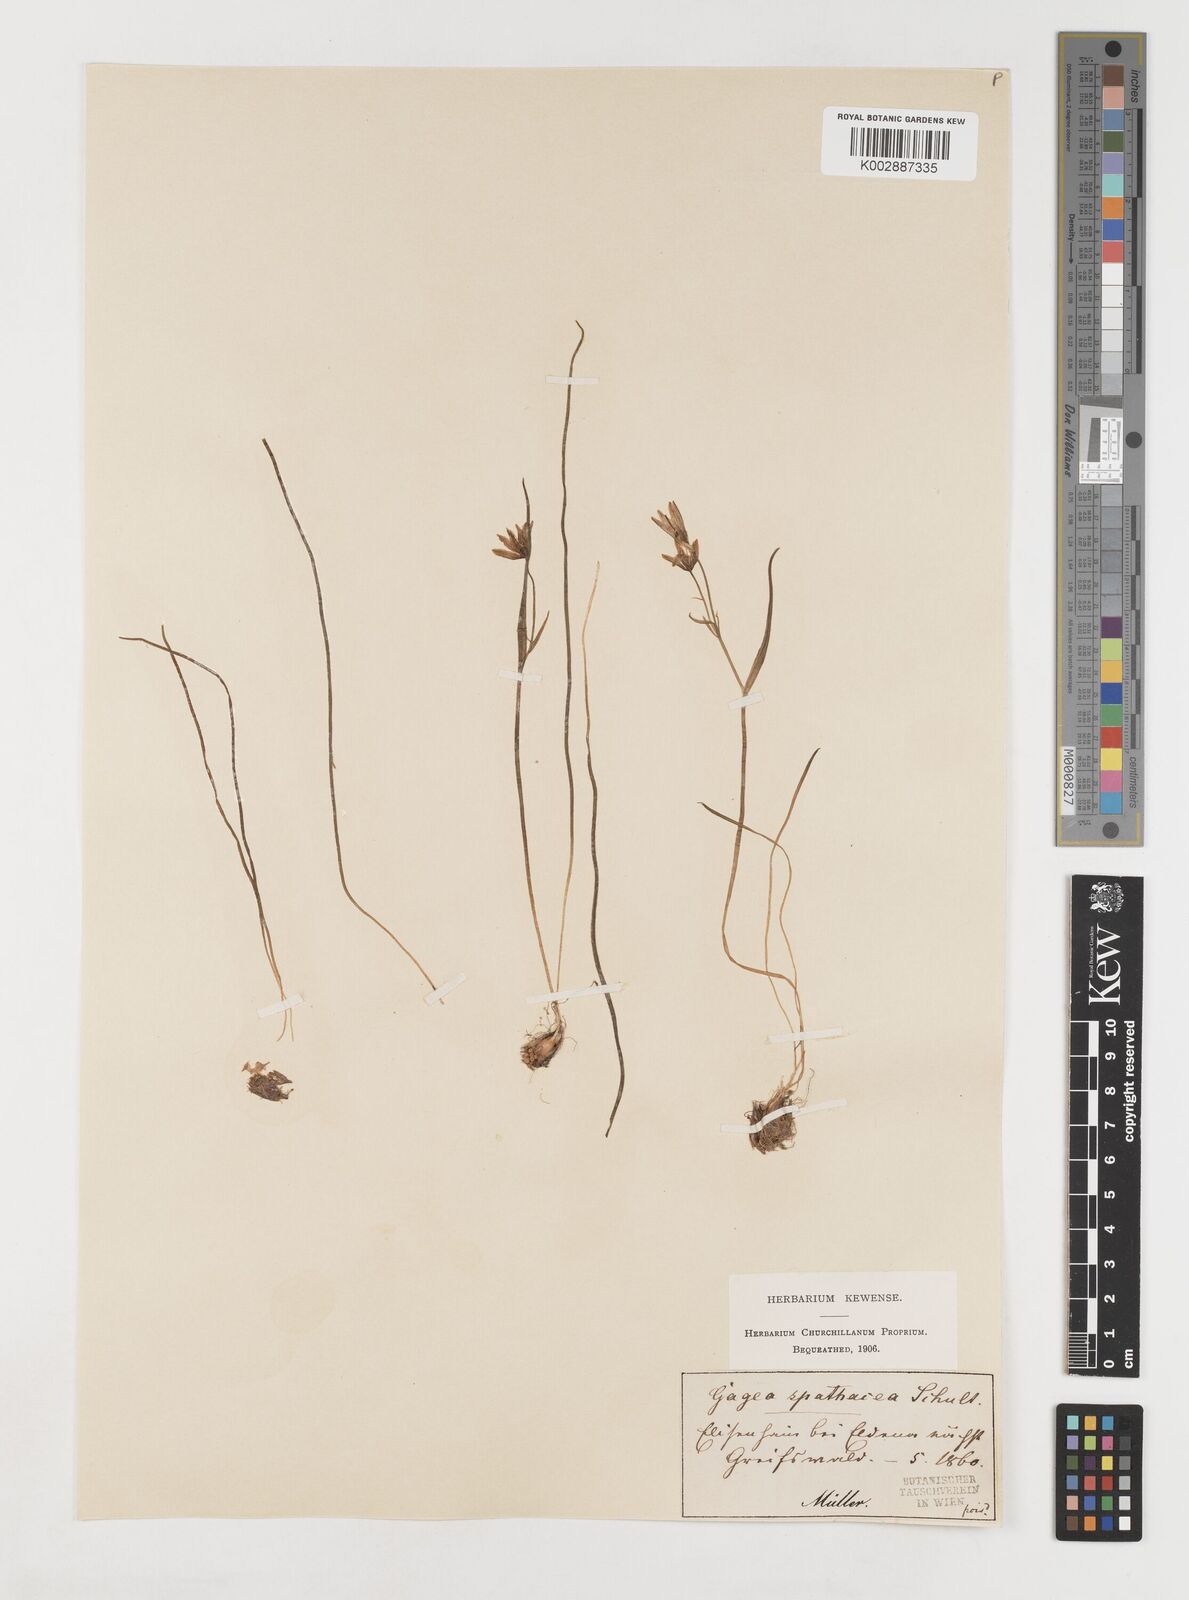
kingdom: Plantae
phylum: Tracheophyta
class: Liliopsida
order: Liliales
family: Liliaceae
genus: Gagea
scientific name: Gagea spathacea
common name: Belgian gagea
